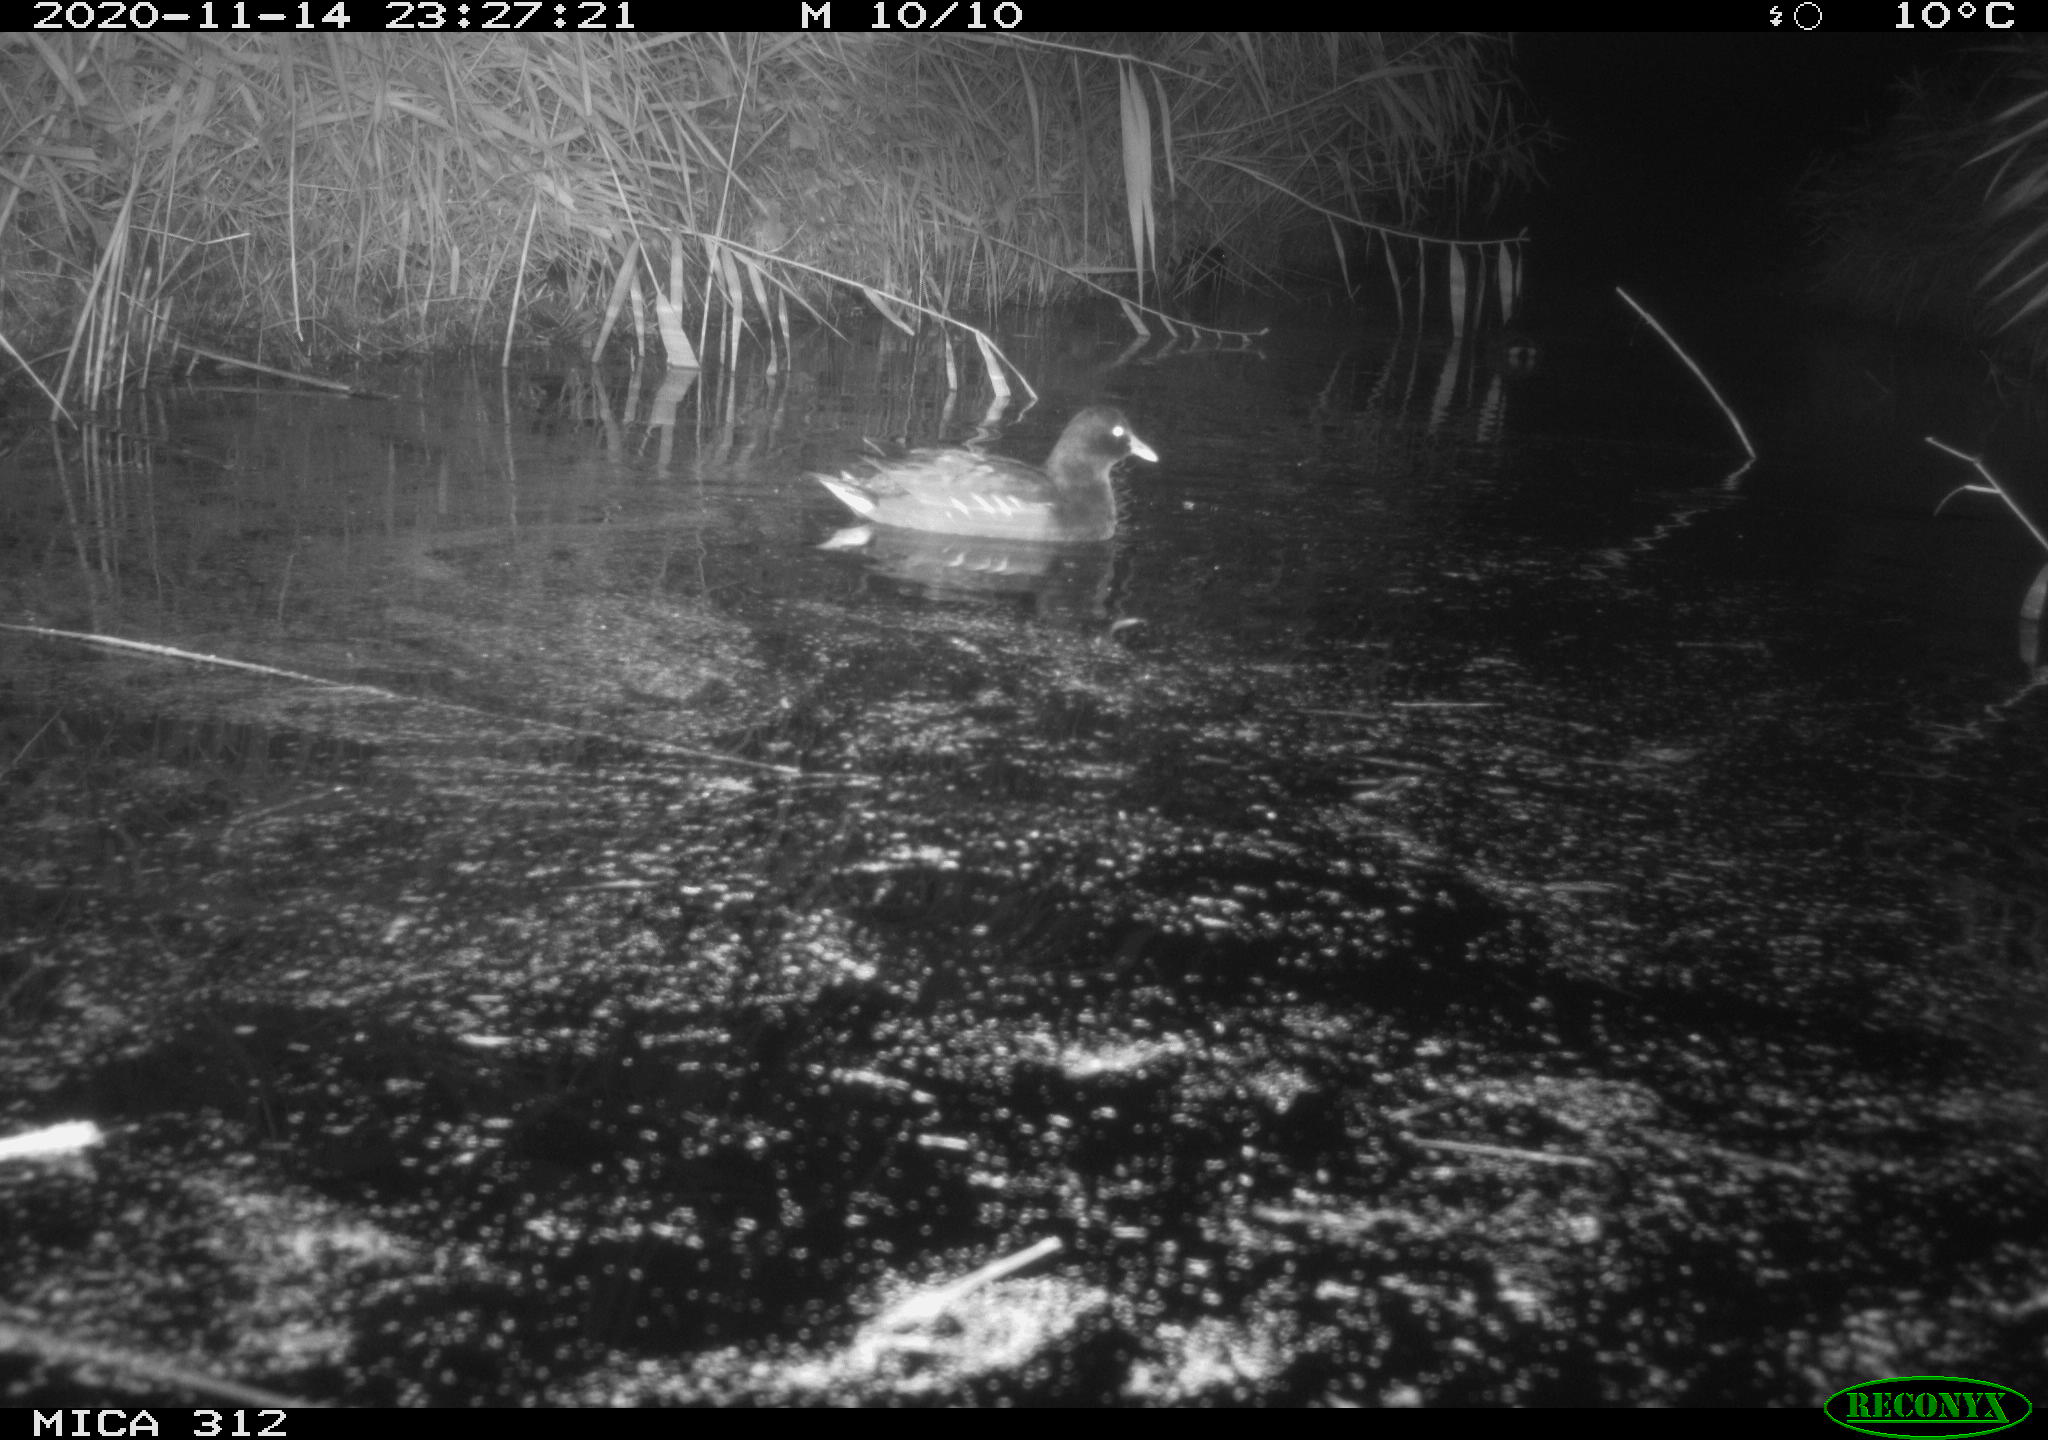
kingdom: Animalia
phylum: Chordata
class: Aves
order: Gruiformes
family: Rallidae
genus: Gallinula
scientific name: Gallinula chloropus
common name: Common moorhen
